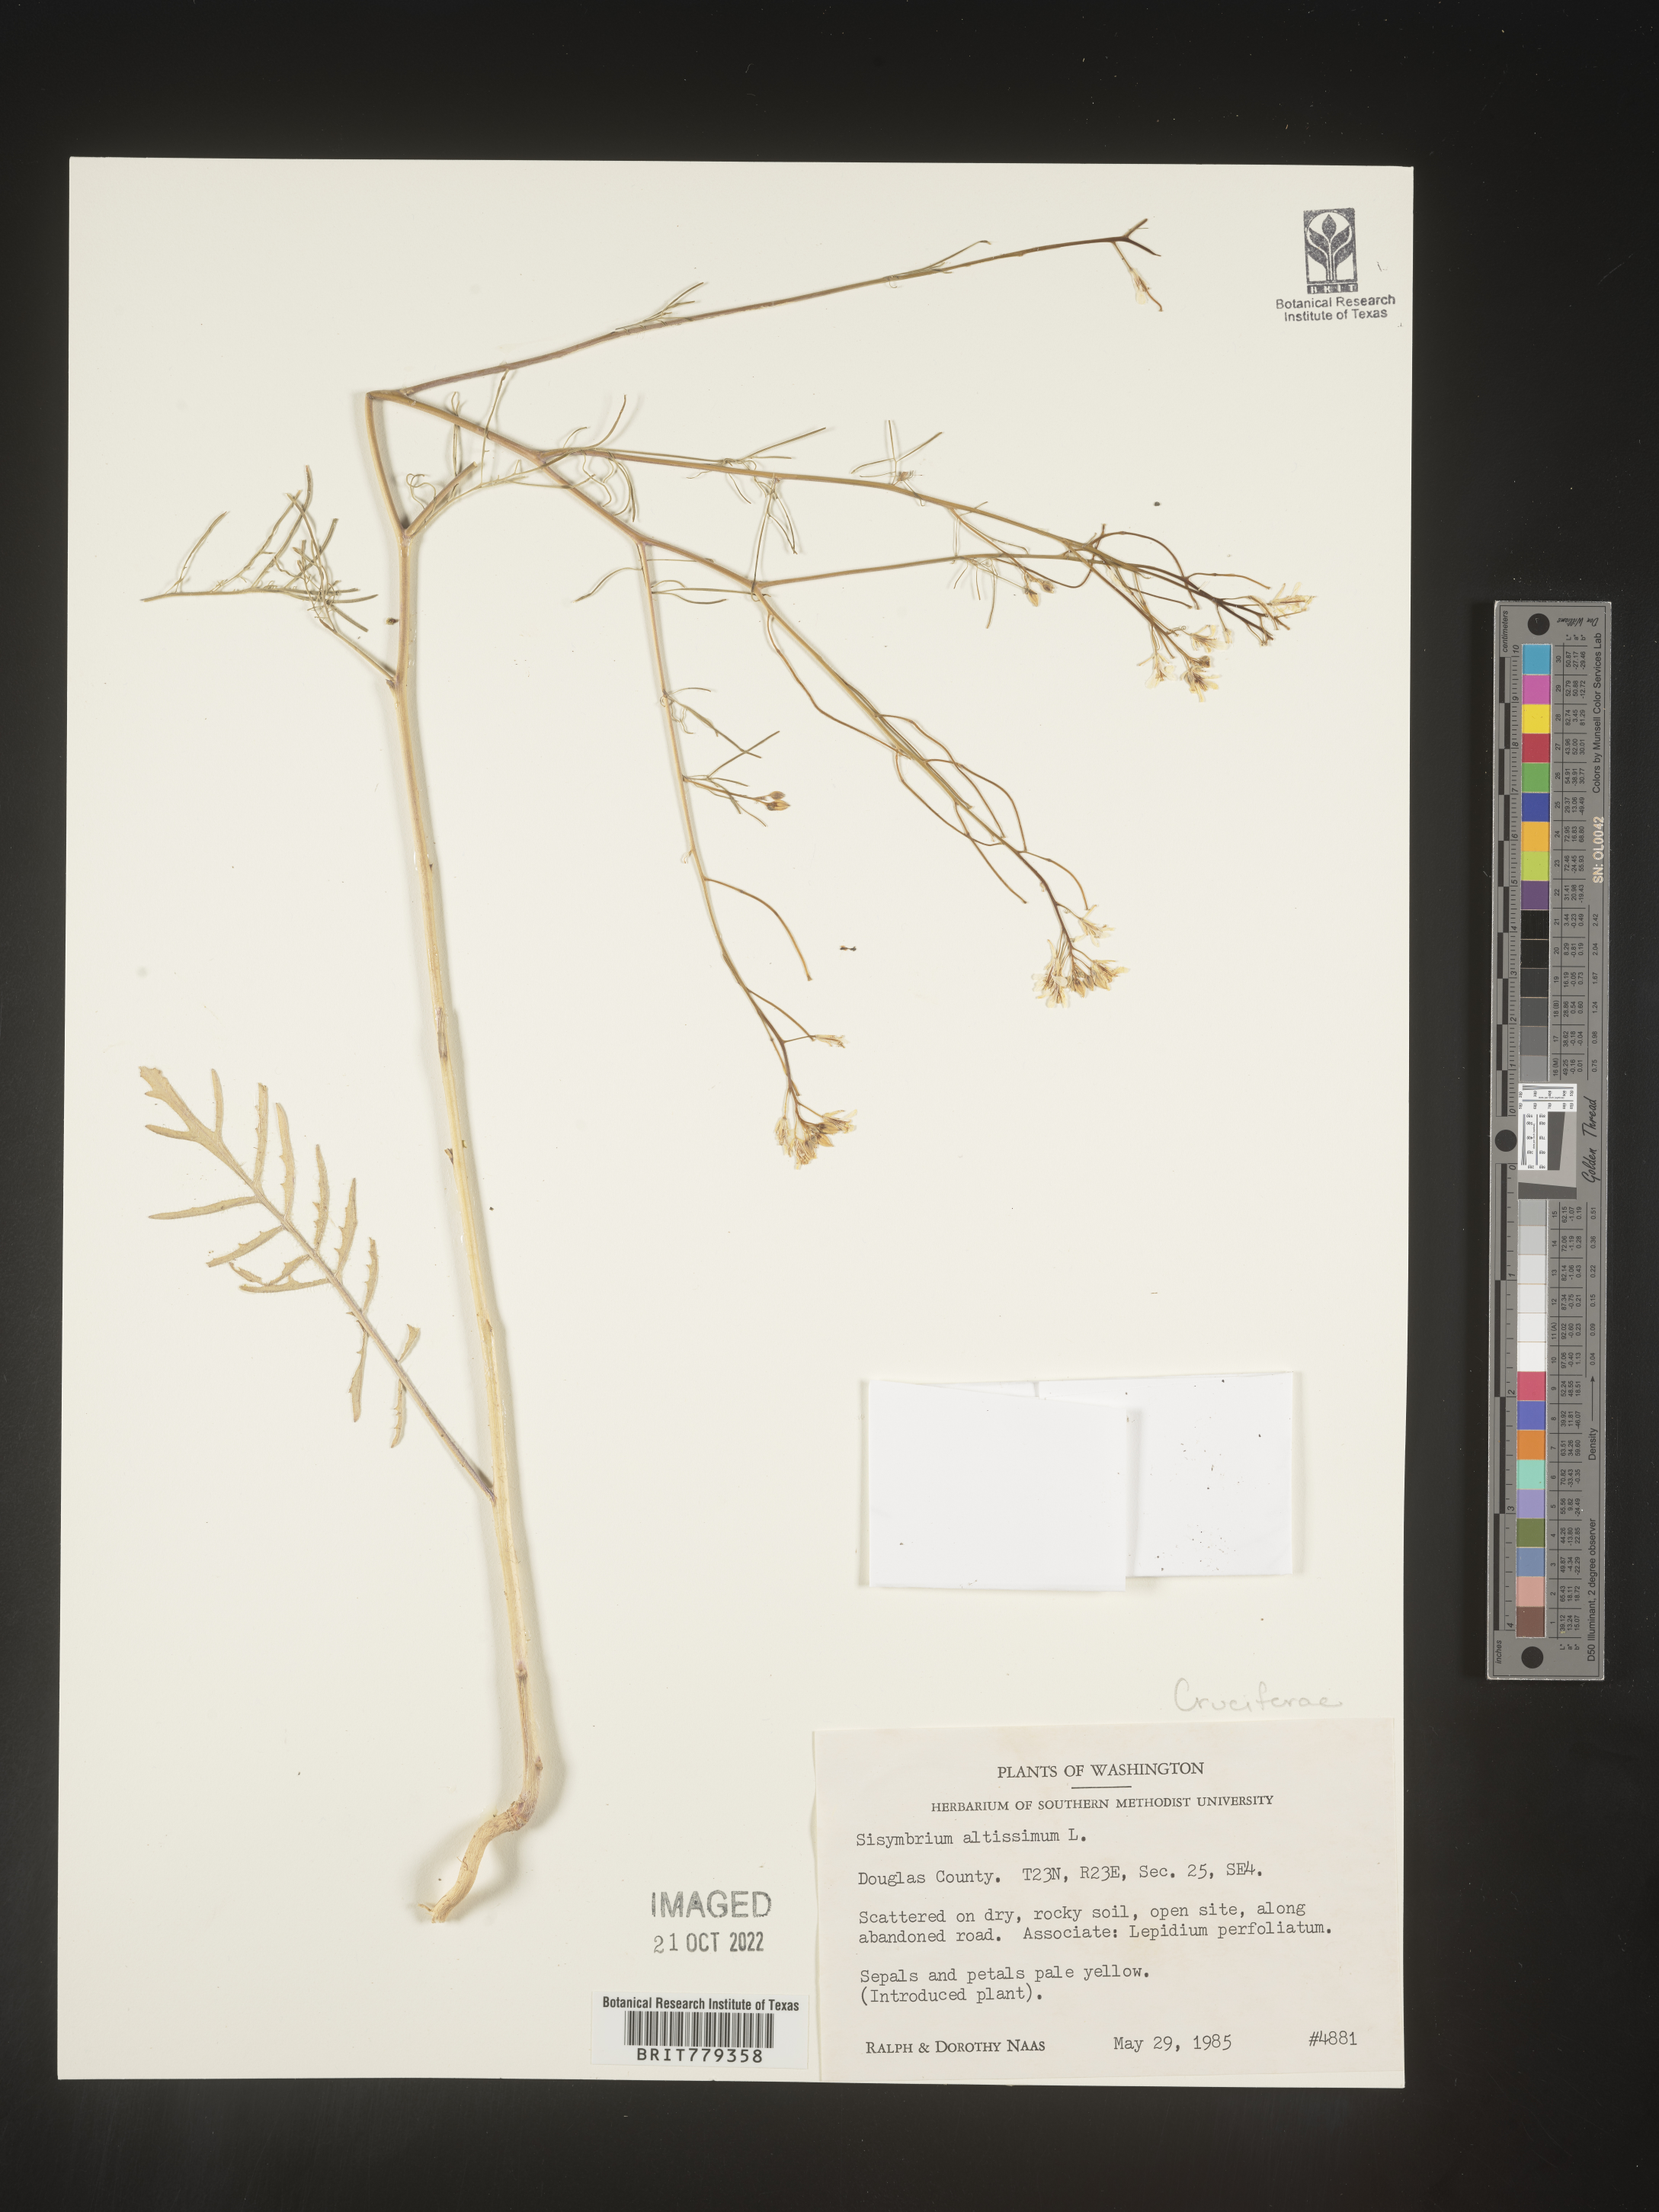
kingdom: Plantae
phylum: Tracheophyta
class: Magnoliopsida
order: Brassicales
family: Brassicaceae
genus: Sisymbrium
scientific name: Sisymbrium altissimum
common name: Tall rocket
